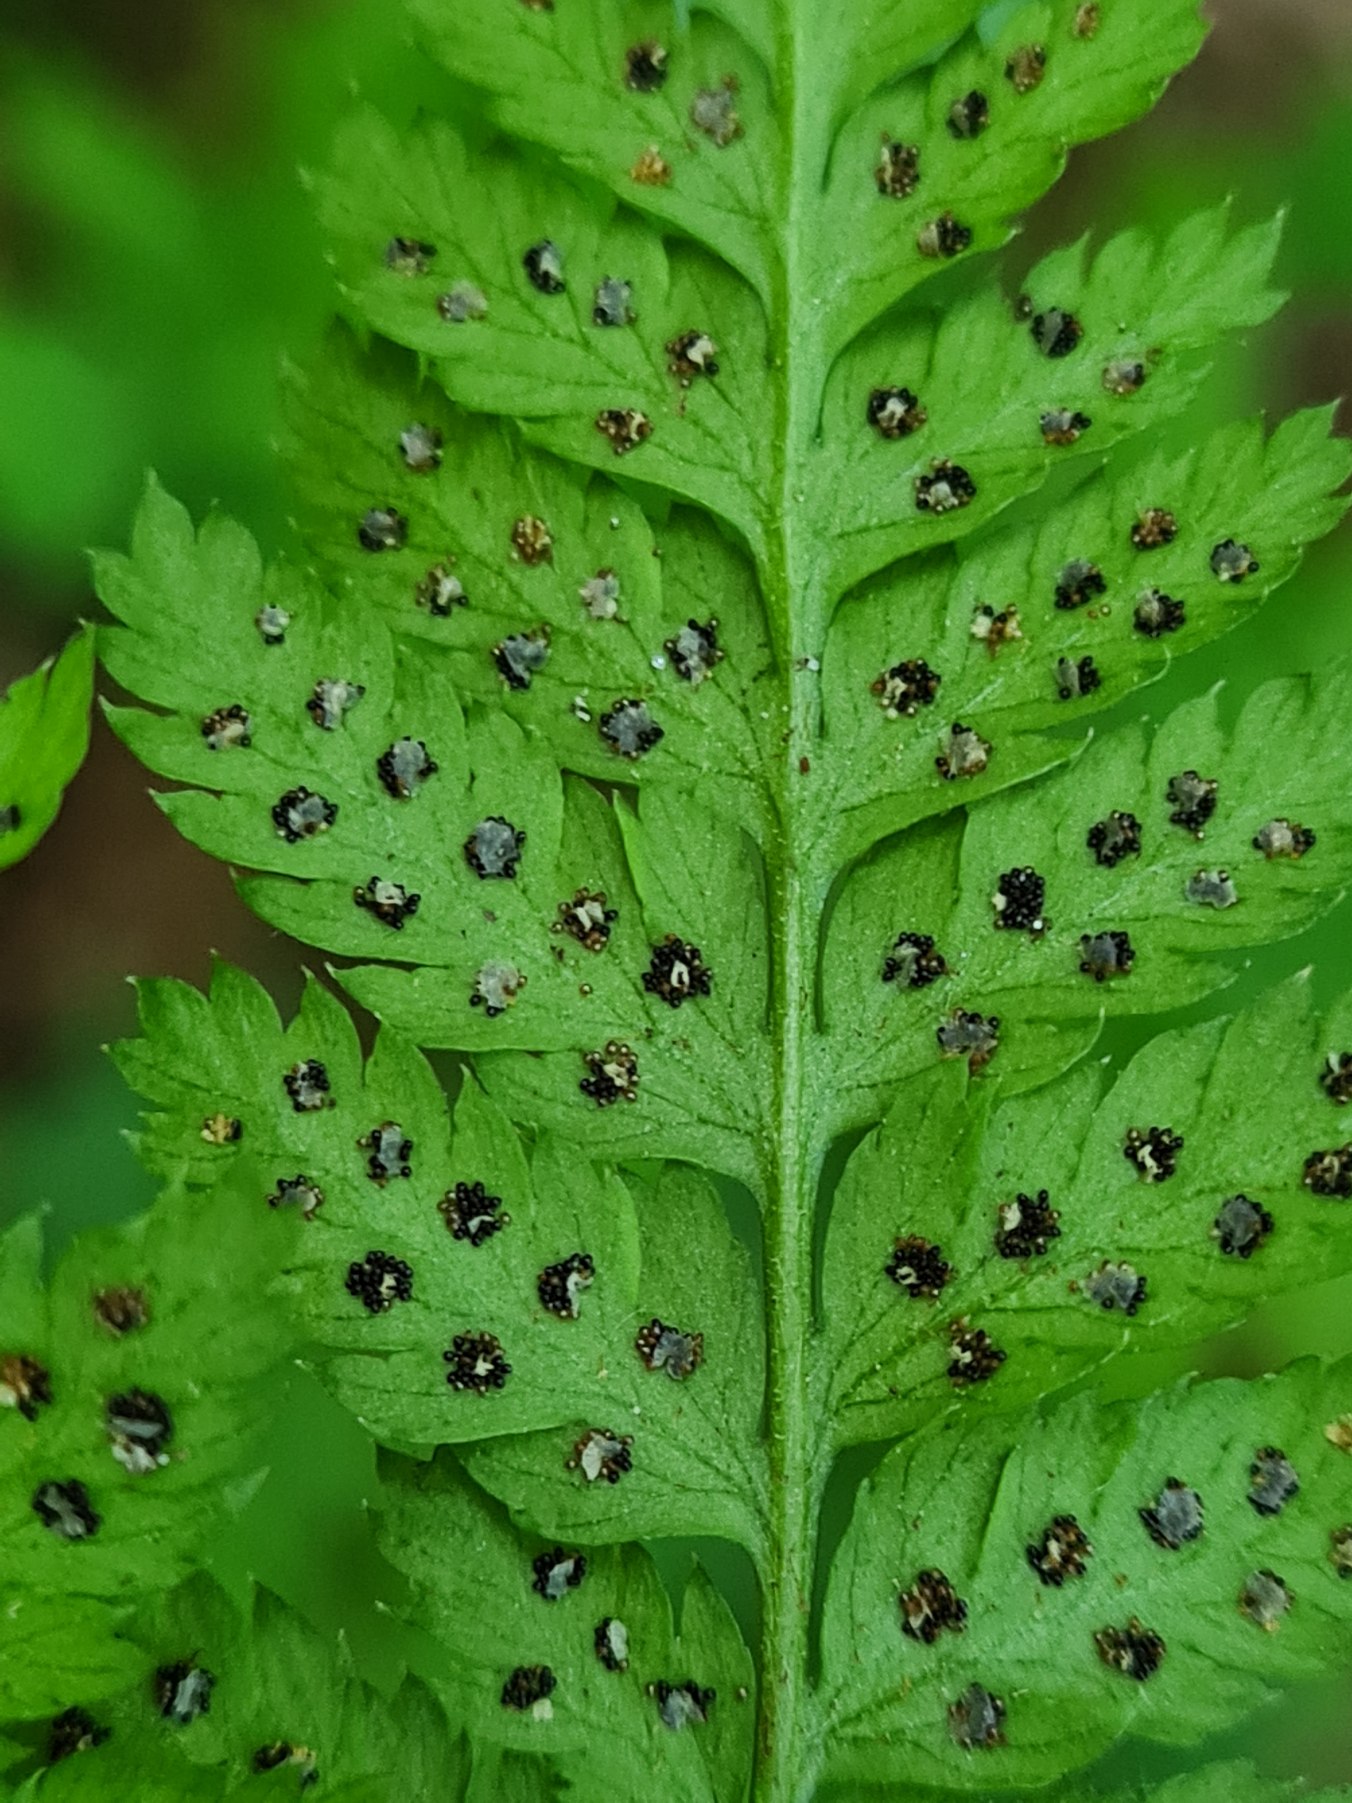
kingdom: Plantae
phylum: Tracheophyta
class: Polypodiopsida
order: Polypodiales
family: Dryopteridaceae
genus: Dryopteris
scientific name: Dryopteris
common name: Mangeløv (Dryopteris-slægten)
